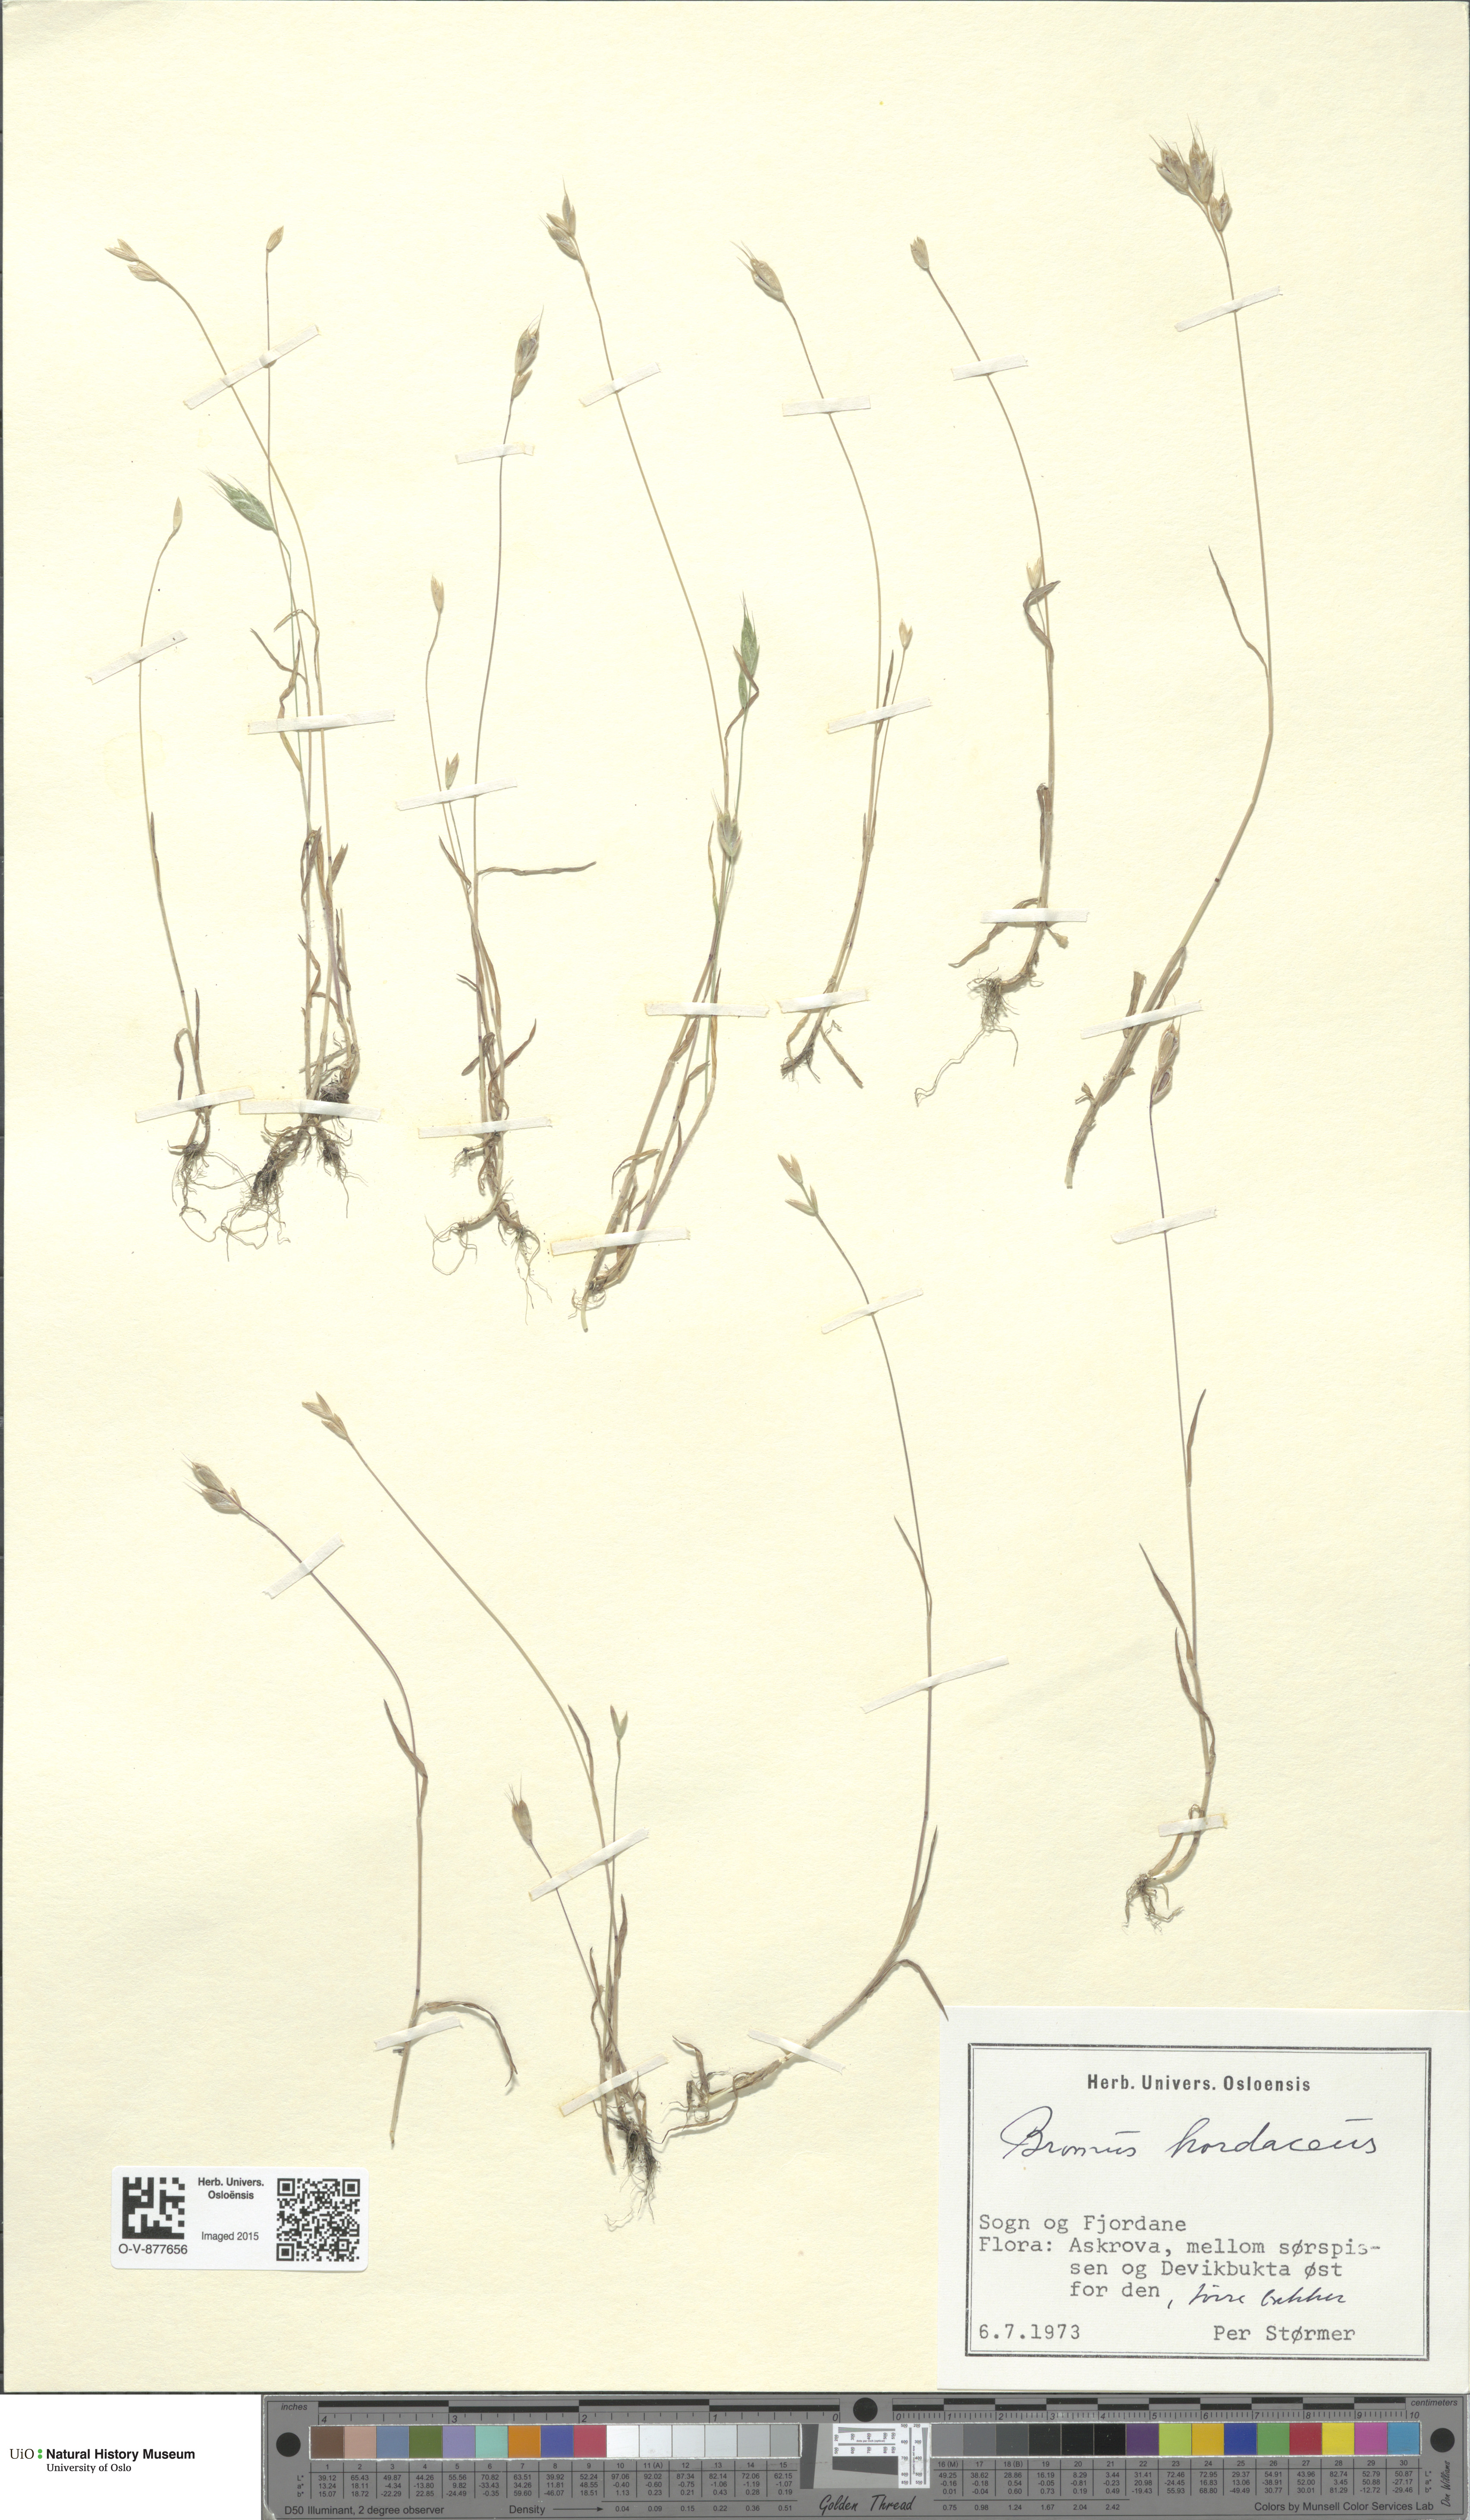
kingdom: Plantae
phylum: Tracheophyta
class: Liliopsida
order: Poales
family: Poaceae
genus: Bromus
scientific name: Bromus hordeaceus
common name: Soft brome
